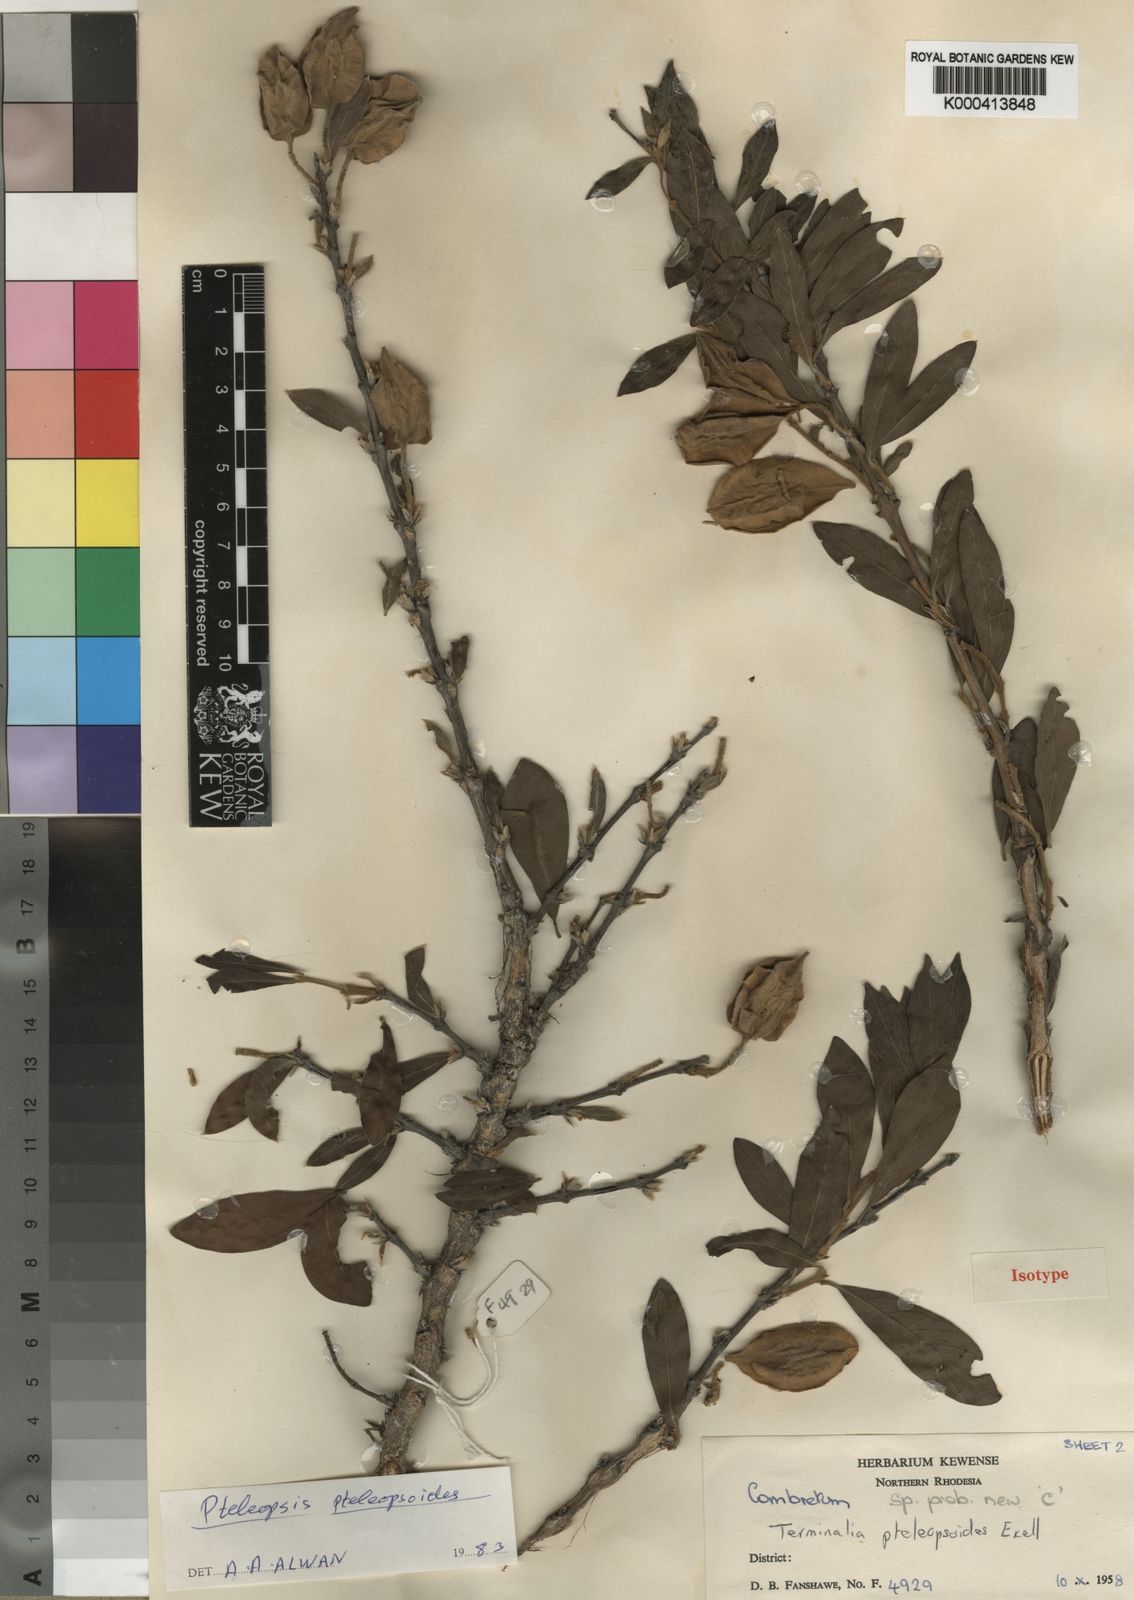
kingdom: Plantae
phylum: Tracheophyta
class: Magnoliopsida
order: Myrtales
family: Combretaceae
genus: Terminalia
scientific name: Terminalia pteleopsoides
